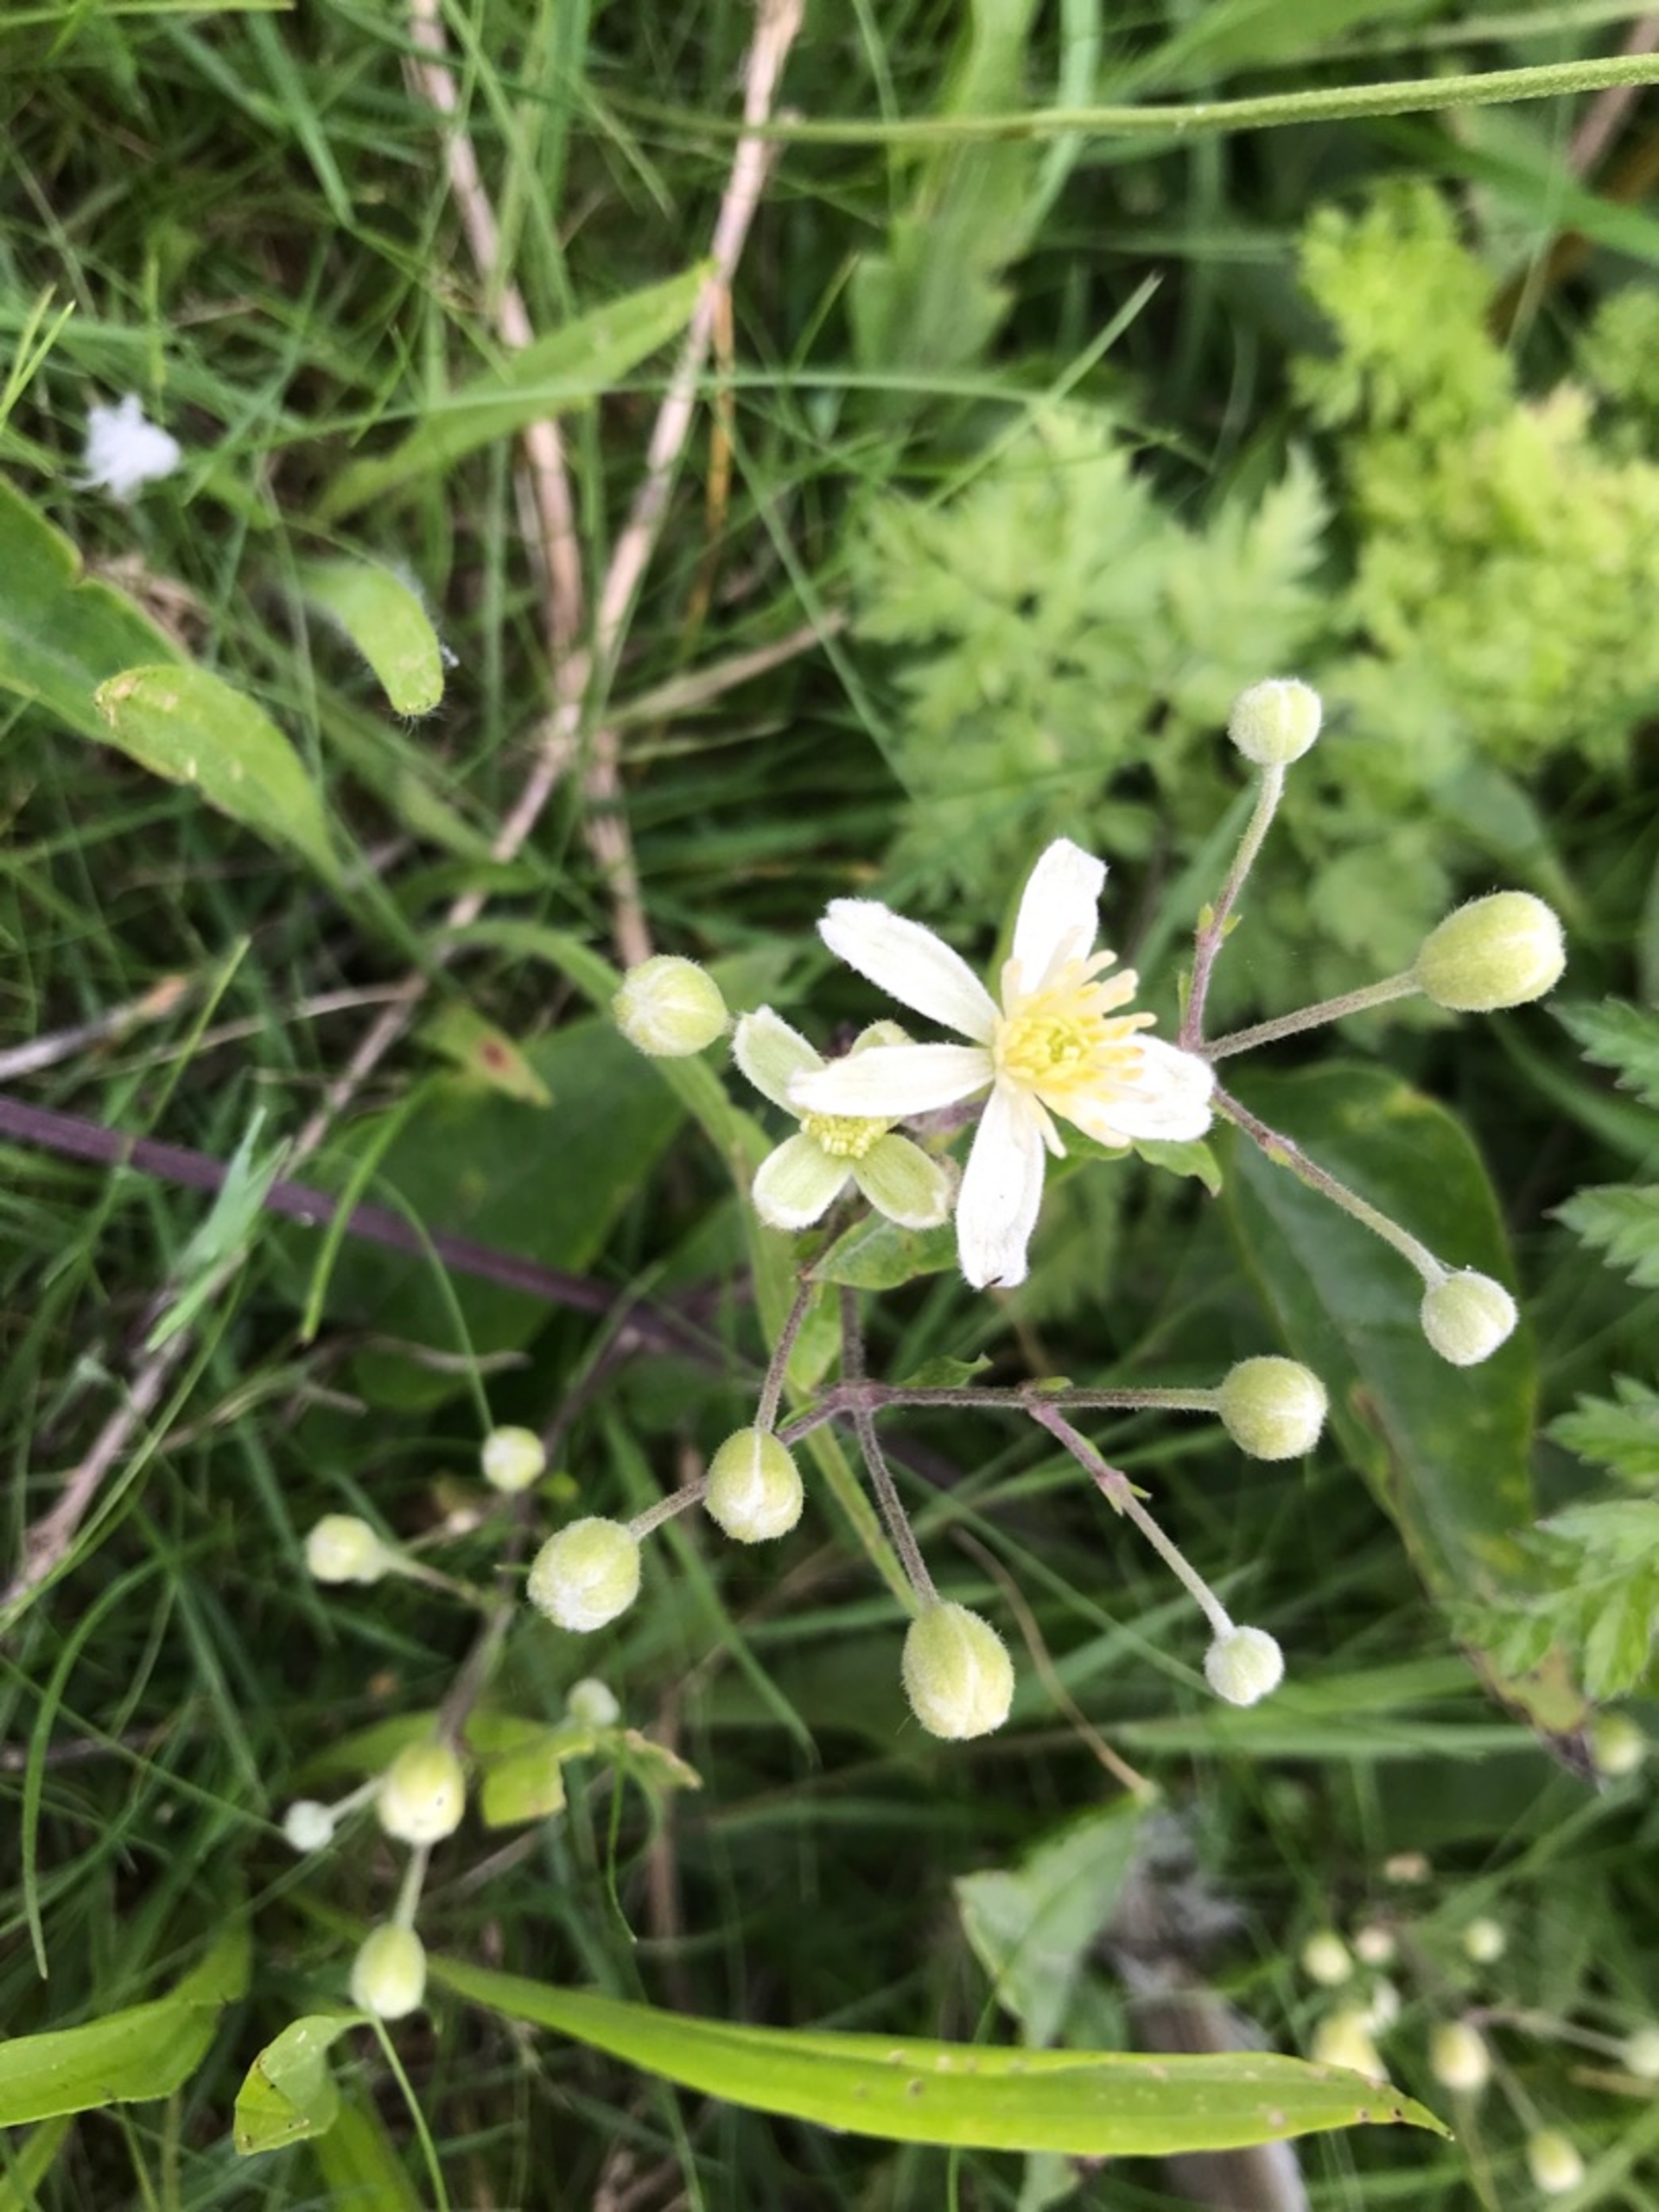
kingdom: Plantae
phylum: Tracheophyta
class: Magnoliopsida
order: Ranunculales
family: Ranunculaceae
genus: Clematis
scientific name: Clematis vitalba
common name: Skovranke
